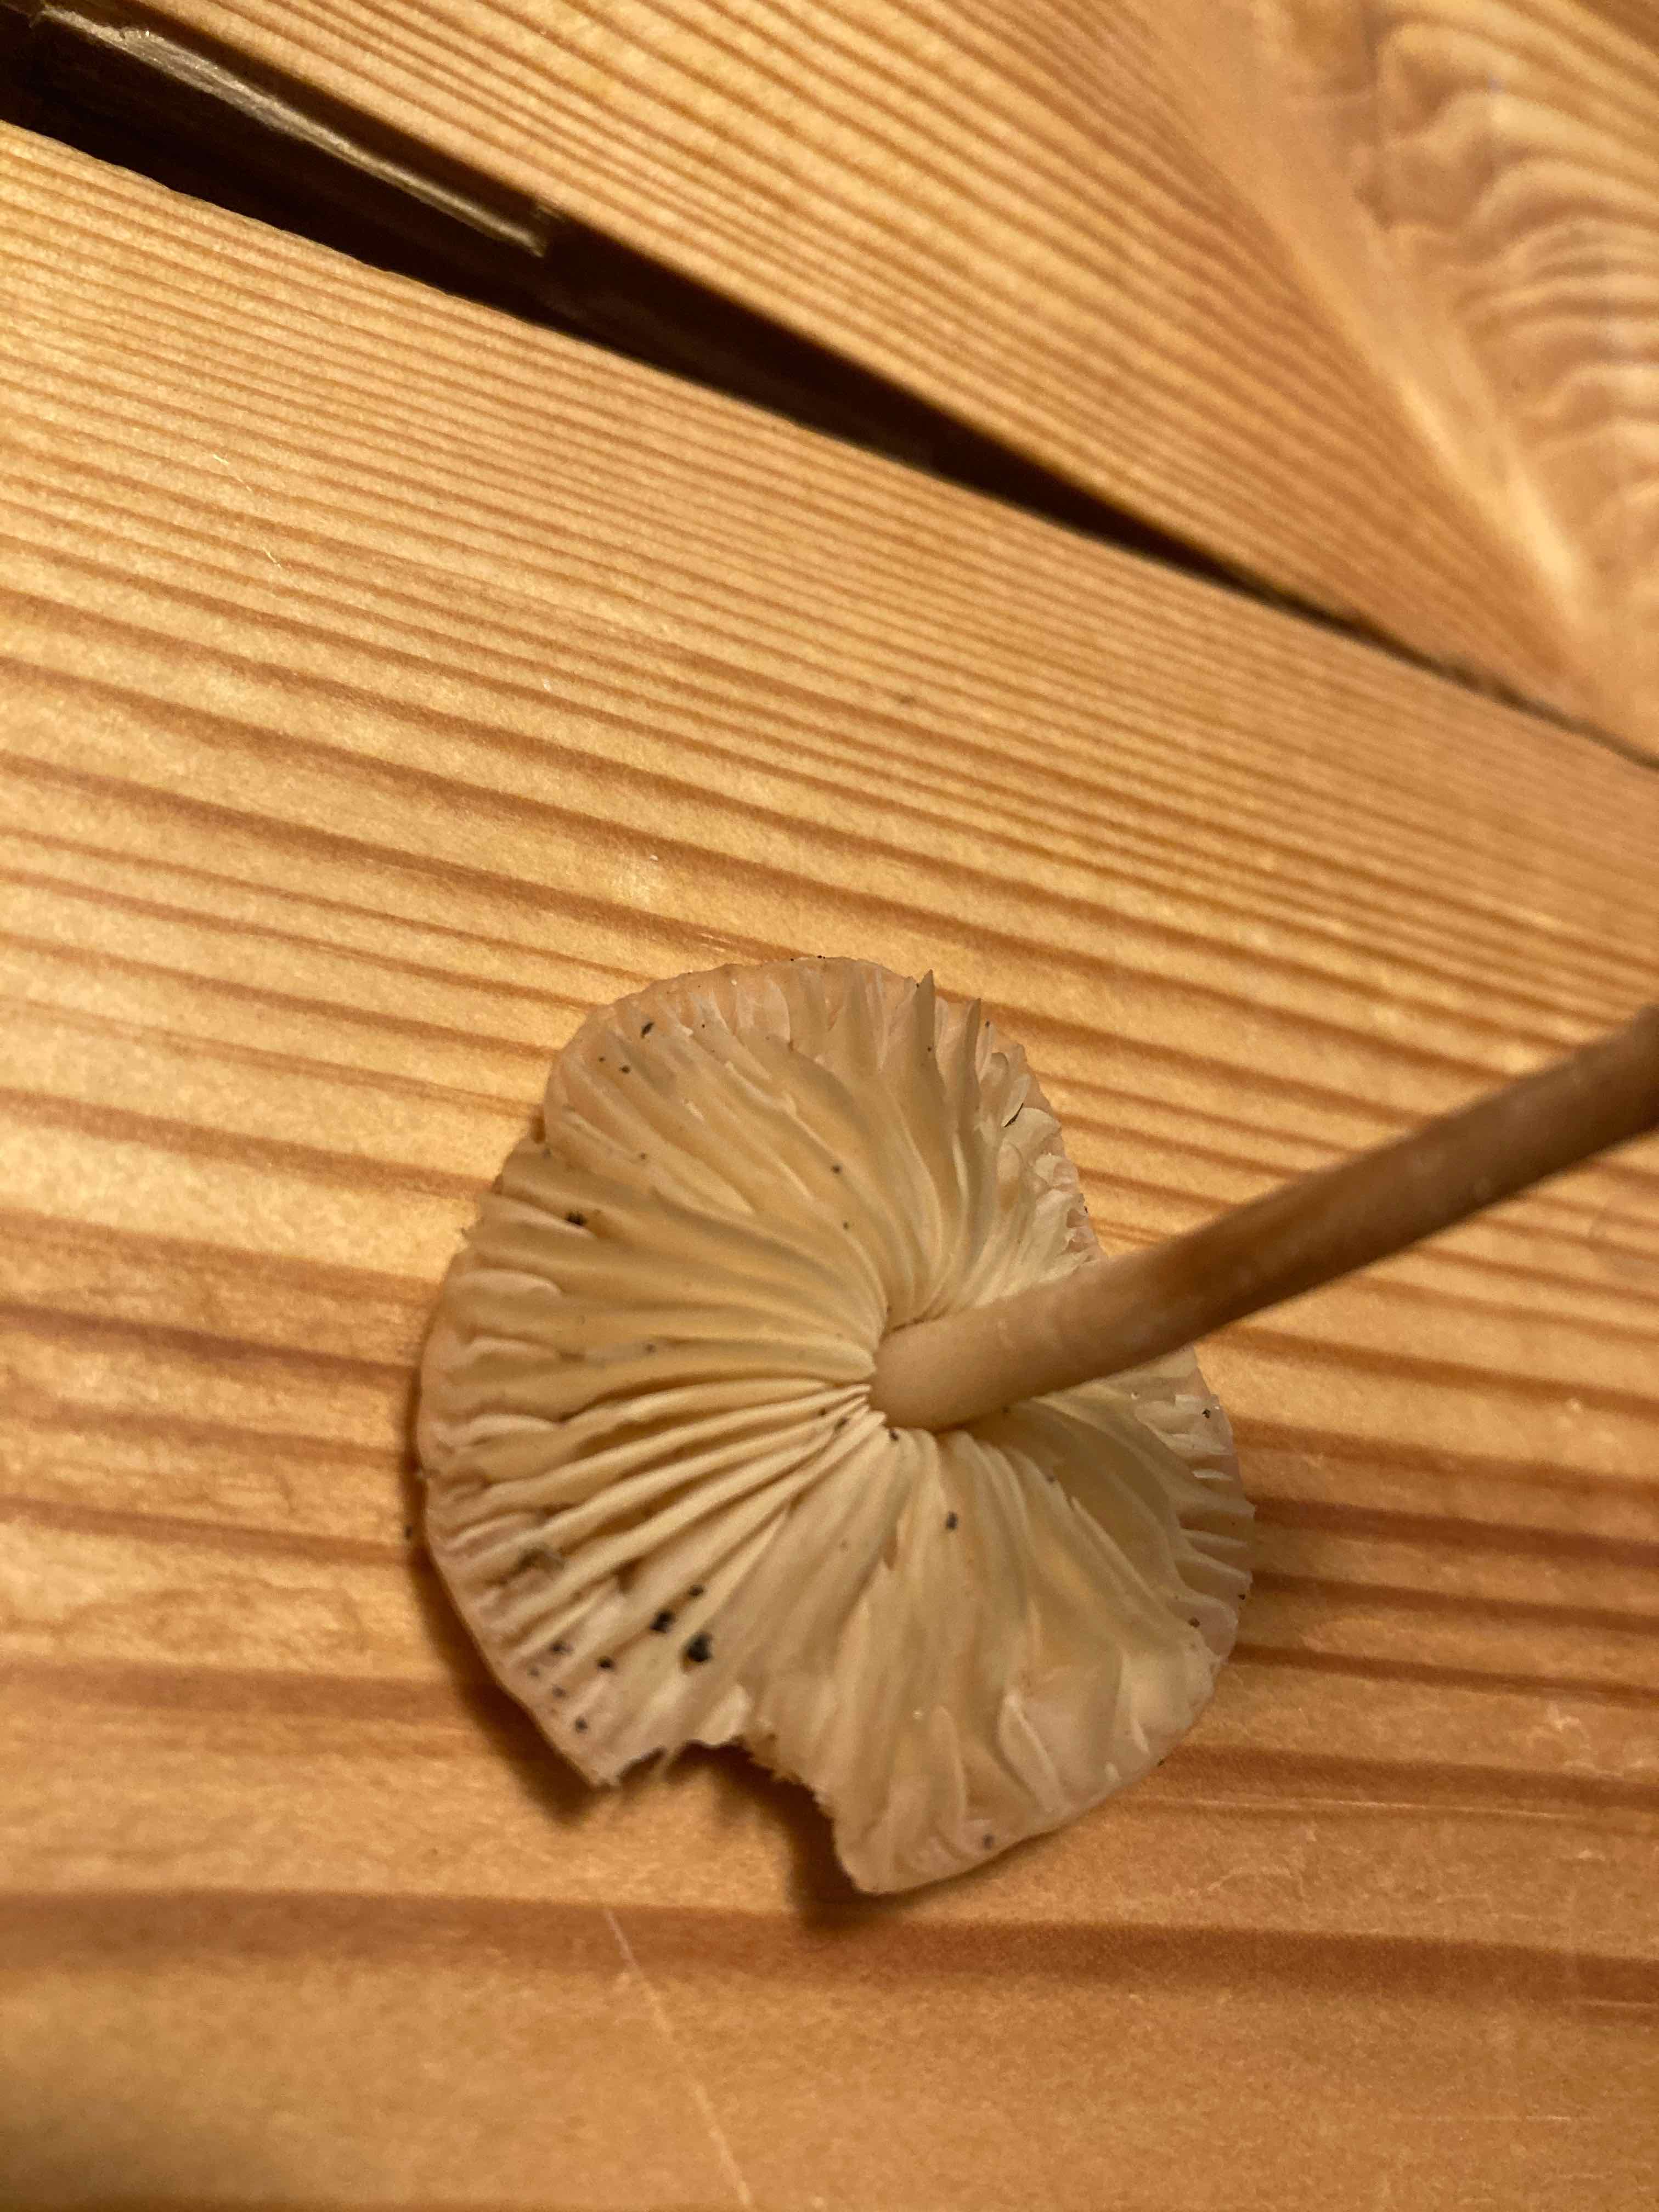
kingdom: Fungi
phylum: Basidiomycota
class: Agaricomycetes
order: Agaricales
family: Marasmiaceae
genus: Marasmius
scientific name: Marasmius oreades
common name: elledans-bruskhat
